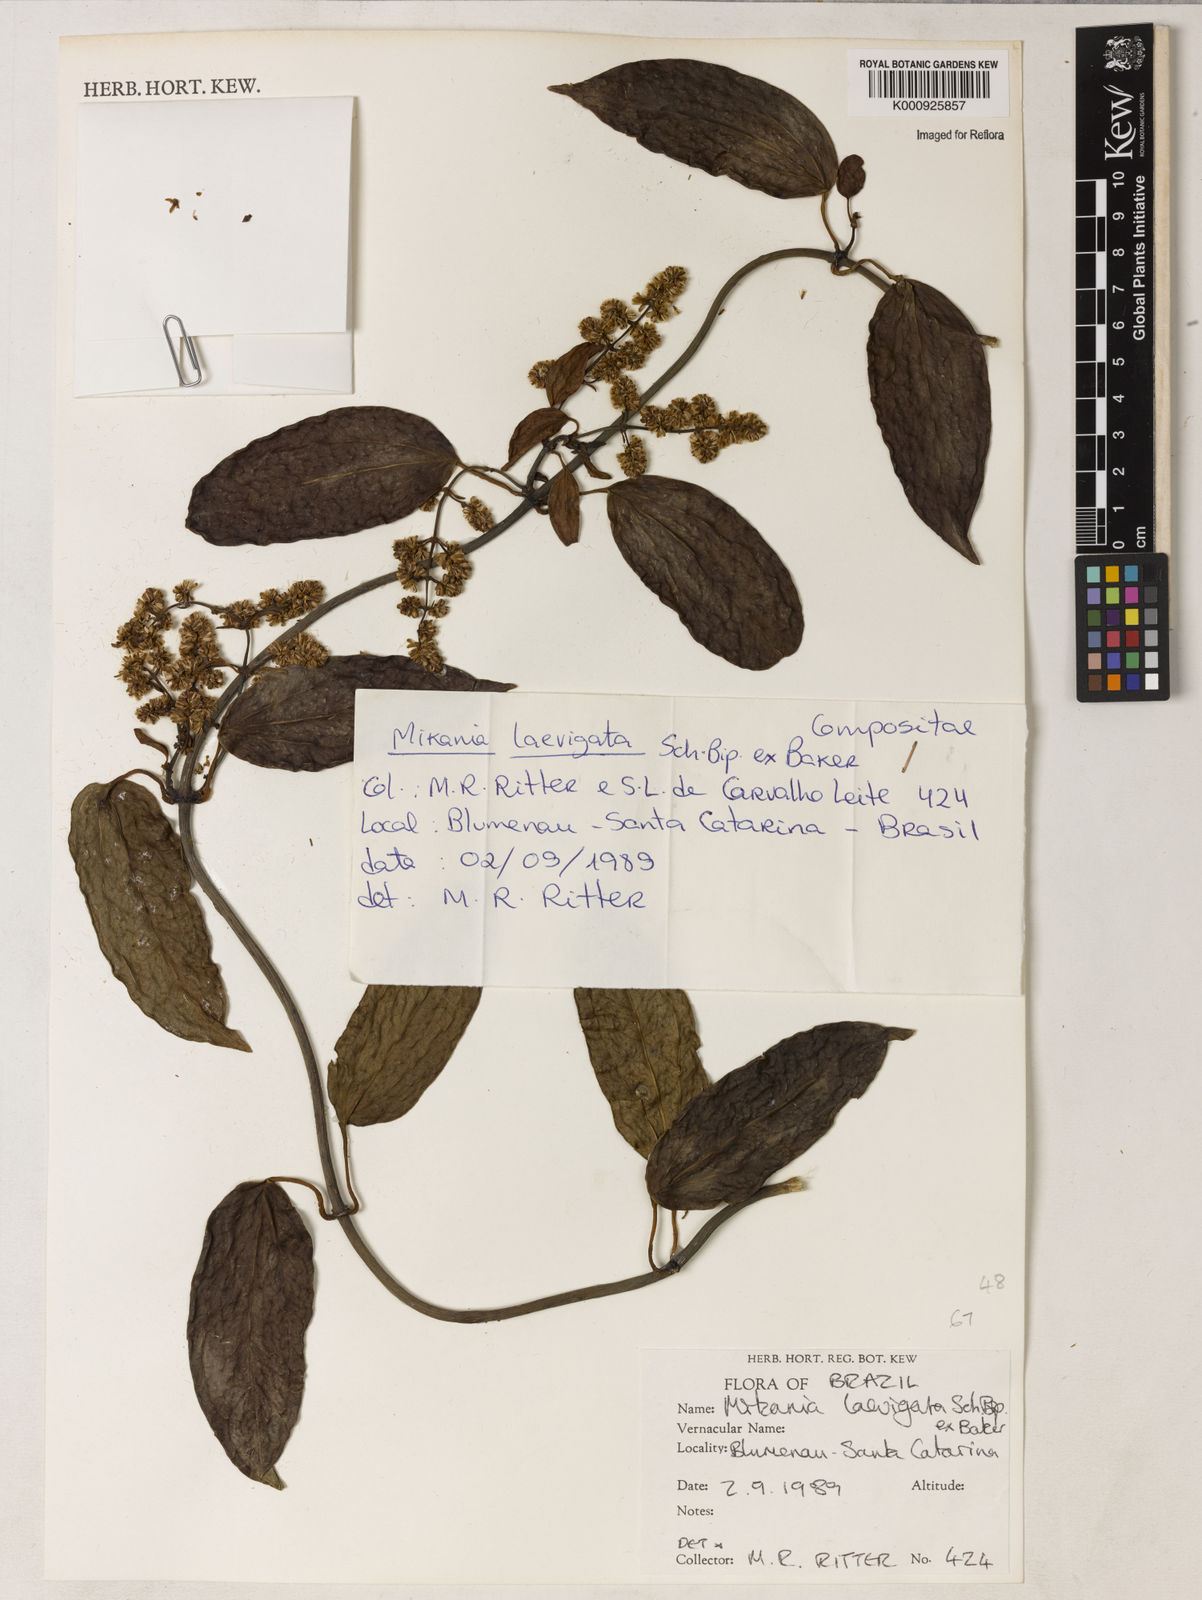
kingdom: Plantae
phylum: Tracheophyta
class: Magnoliopsida
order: Asterales
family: Asteraceae
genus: Mikania
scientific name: Mikania laevigata
